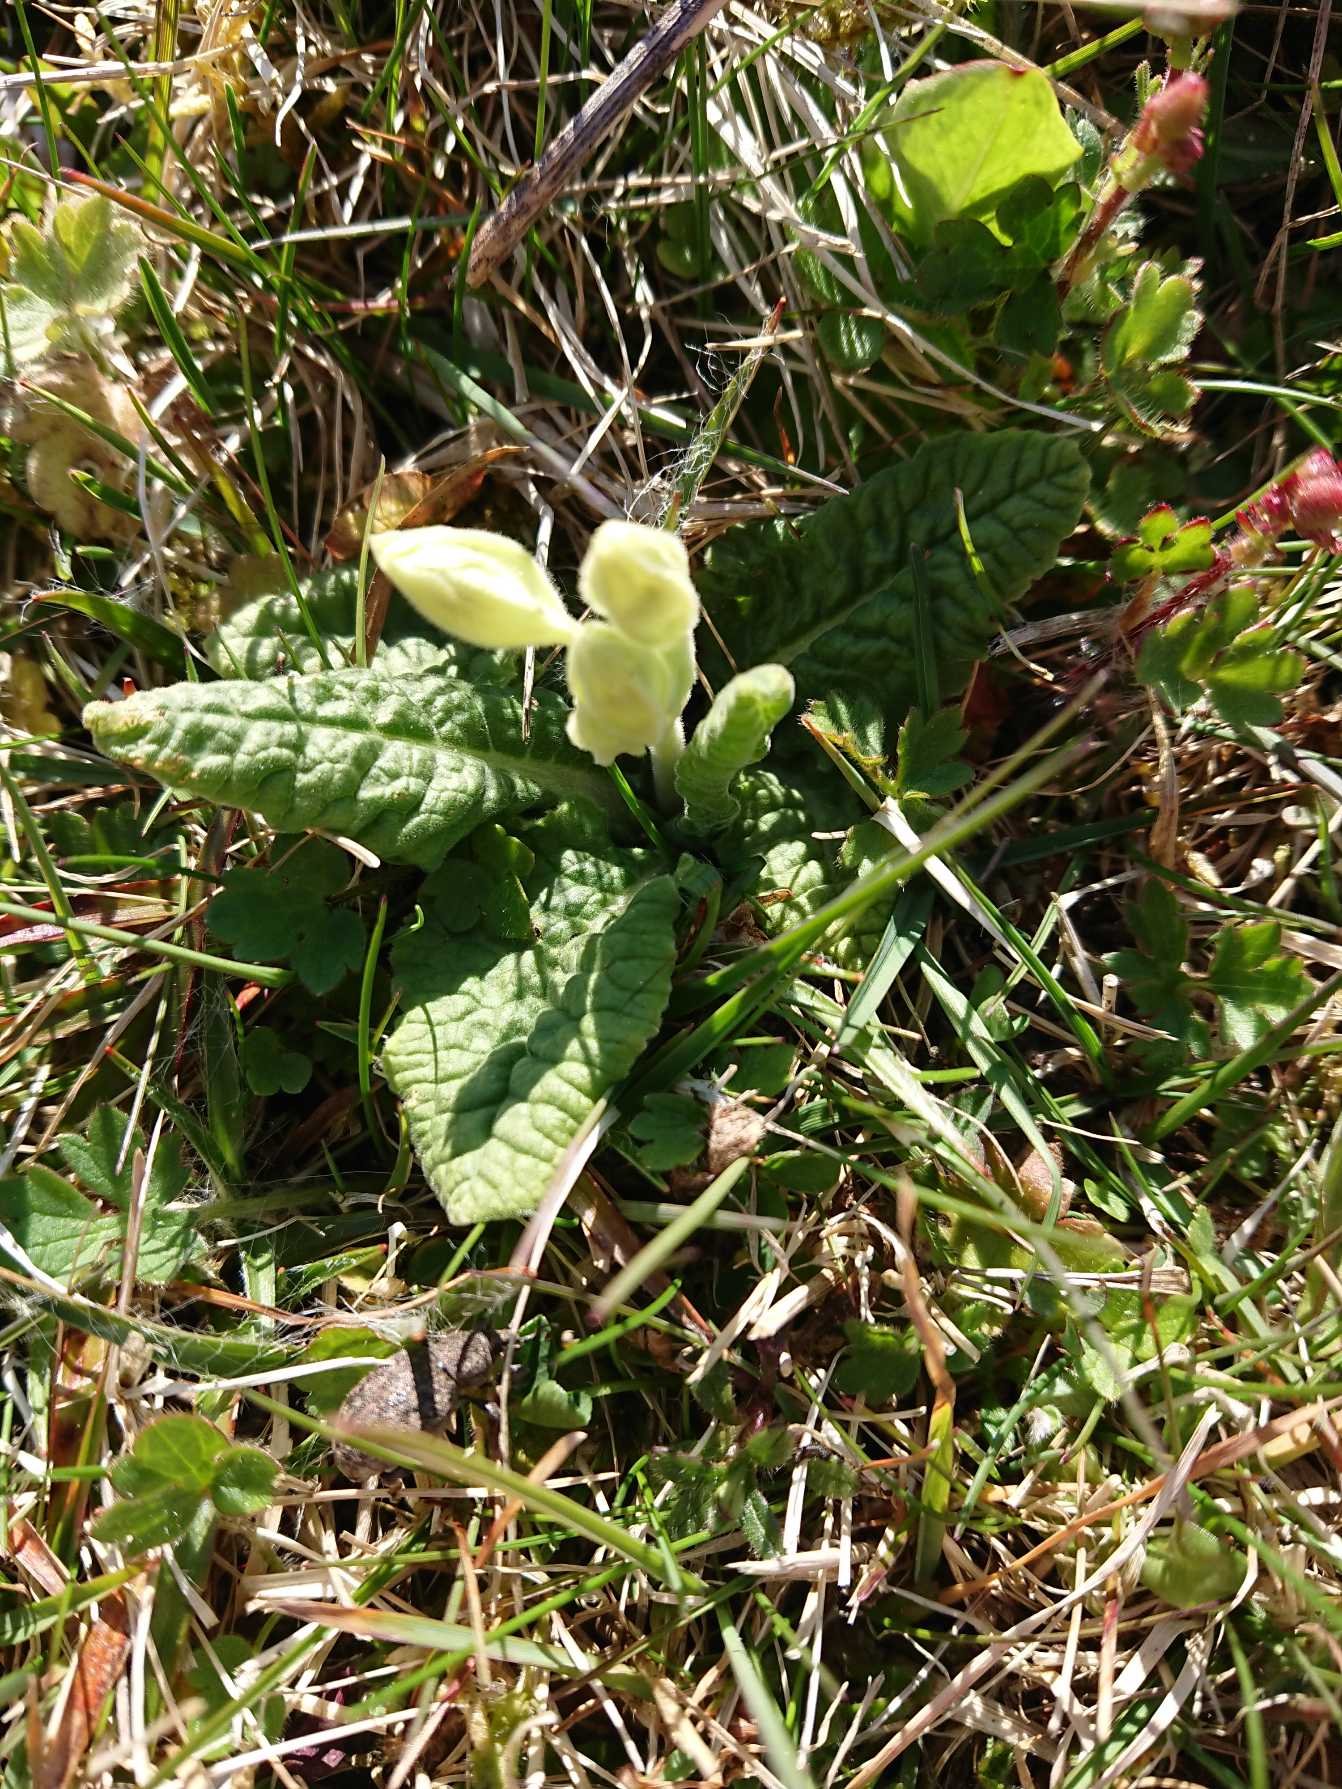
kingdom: Plantae
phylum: Tracheophyta
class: Magnoliopsida
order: Ericales
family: Primulaceae
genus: Primula
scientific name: Primula veris
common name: Hulkravet kodriver
